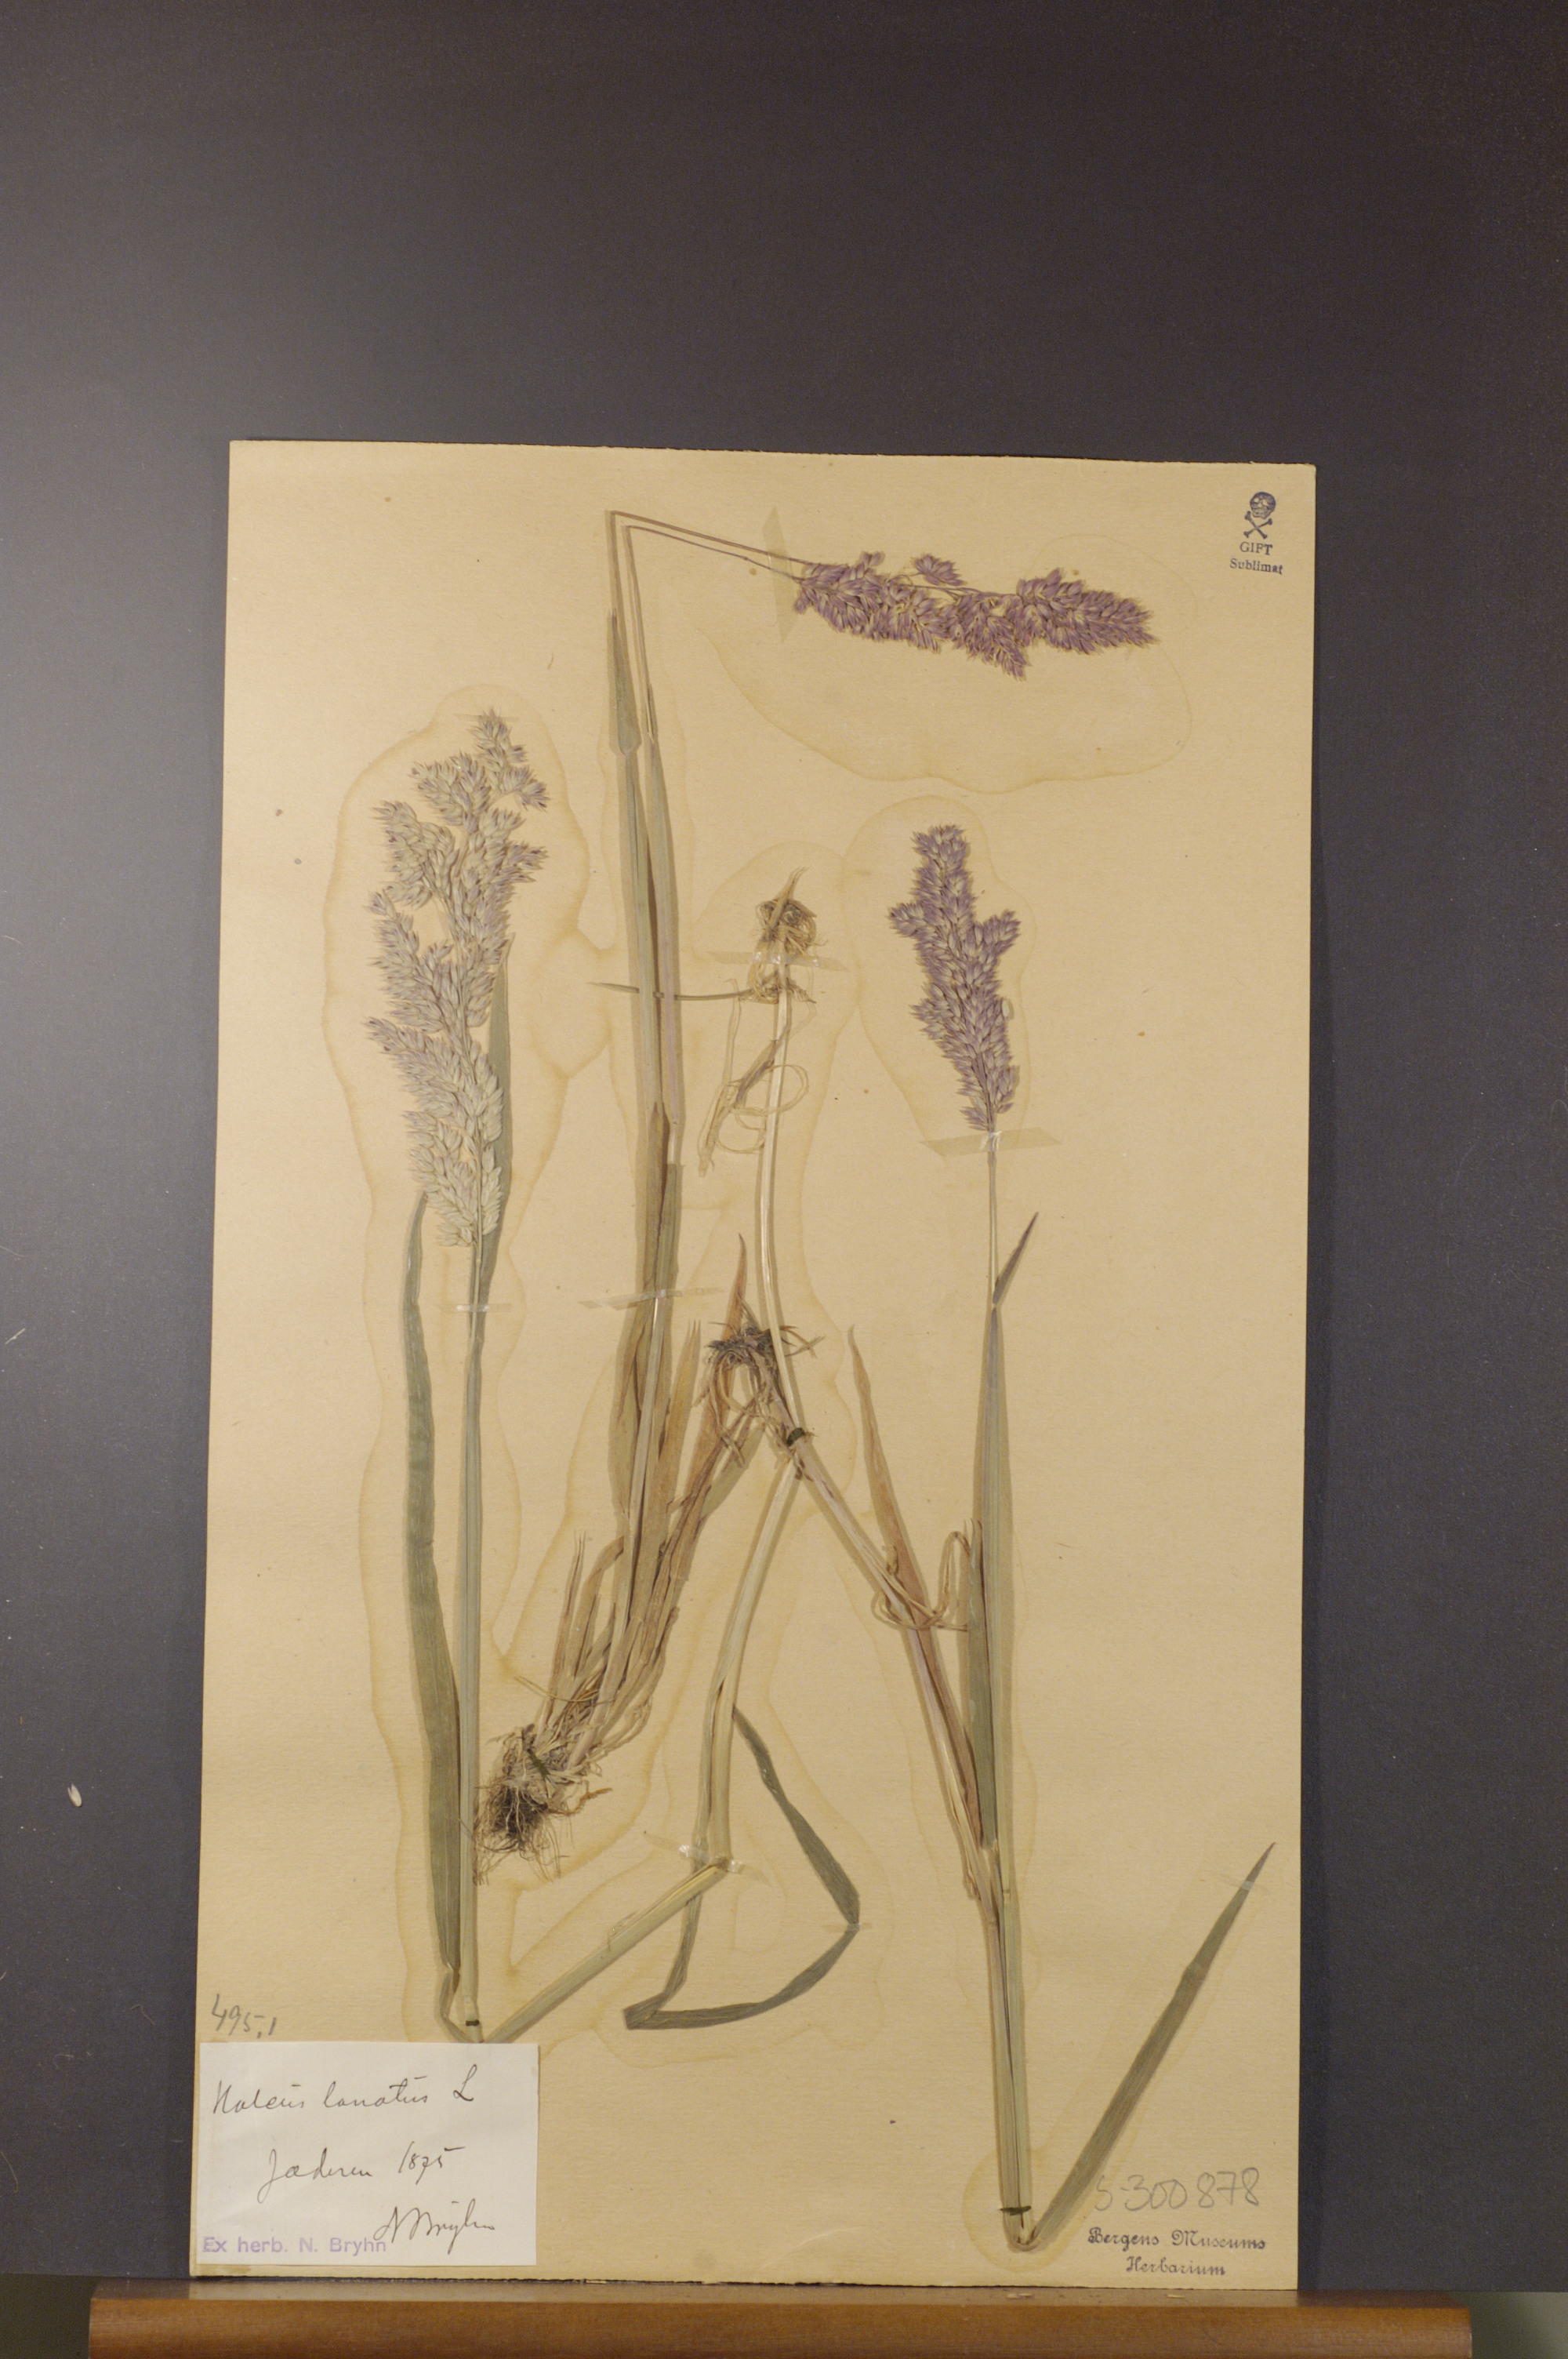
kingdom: Plantae
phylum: Tracheophyta
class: Liliopsida
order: Poales
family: Poaceae
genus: Holcus
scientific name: Holcus lanatus
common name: Yorkshire-fog
